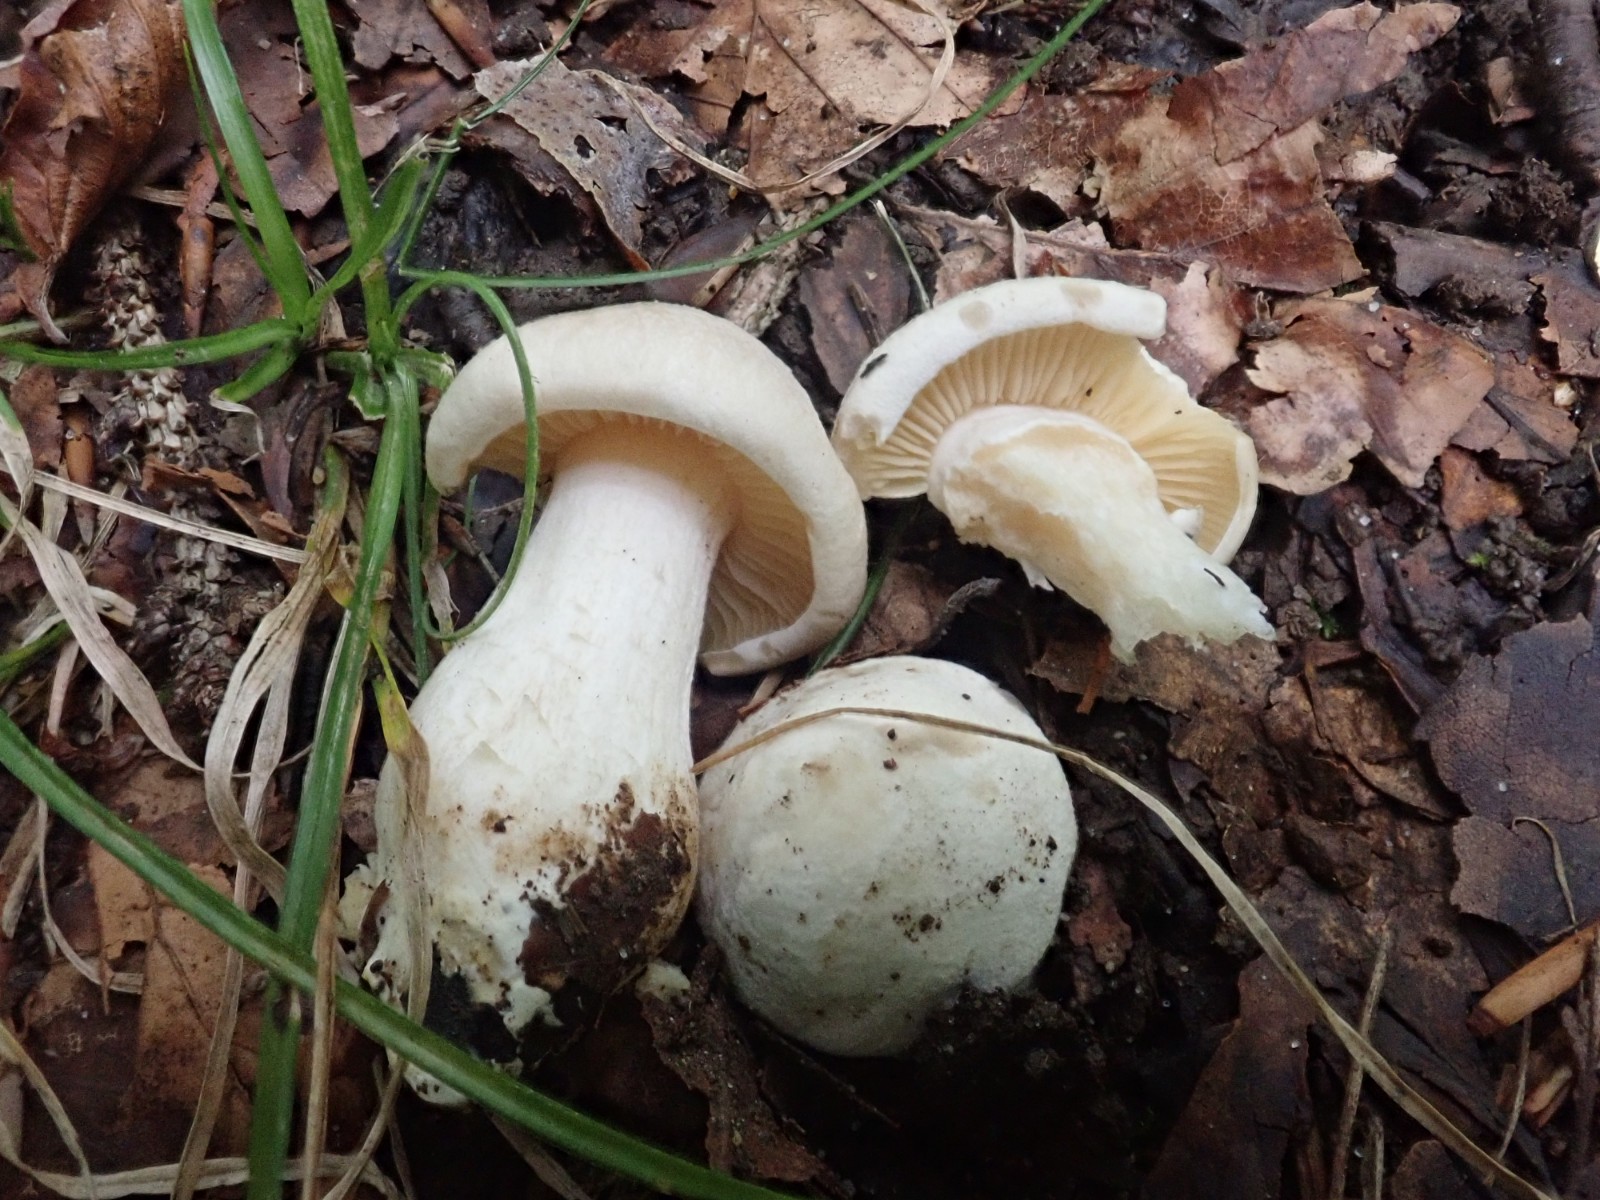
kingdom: Fungi
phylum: Basidiomycota
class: Agaricomycetes
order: Agaricales
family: Entolomataceae
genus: Entoloma
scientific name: Entoloma sinuatum
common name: giftig rødblad
